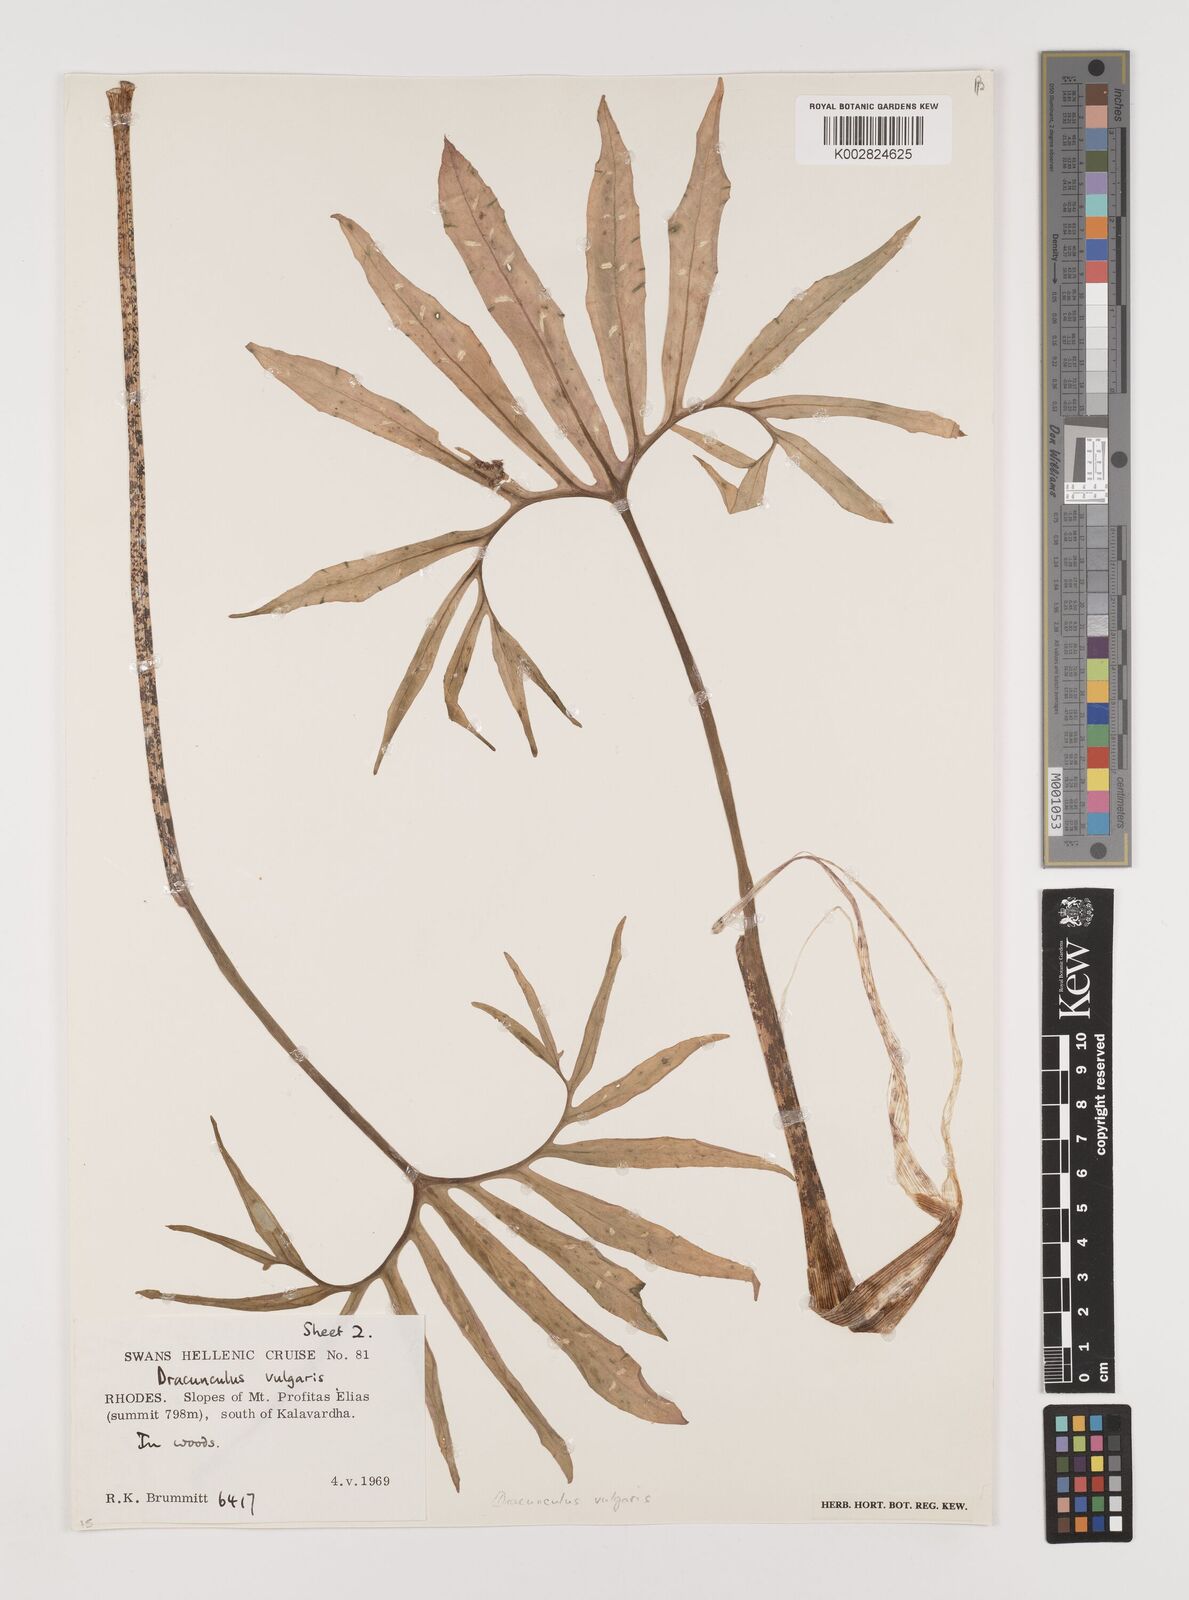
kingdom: Plantae
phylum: Tracheophyta
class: Liliopsida
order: Alismatales
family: Araceae
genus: Dracunculus
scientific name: Dracunculus vulgaris
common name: Dragon arum
